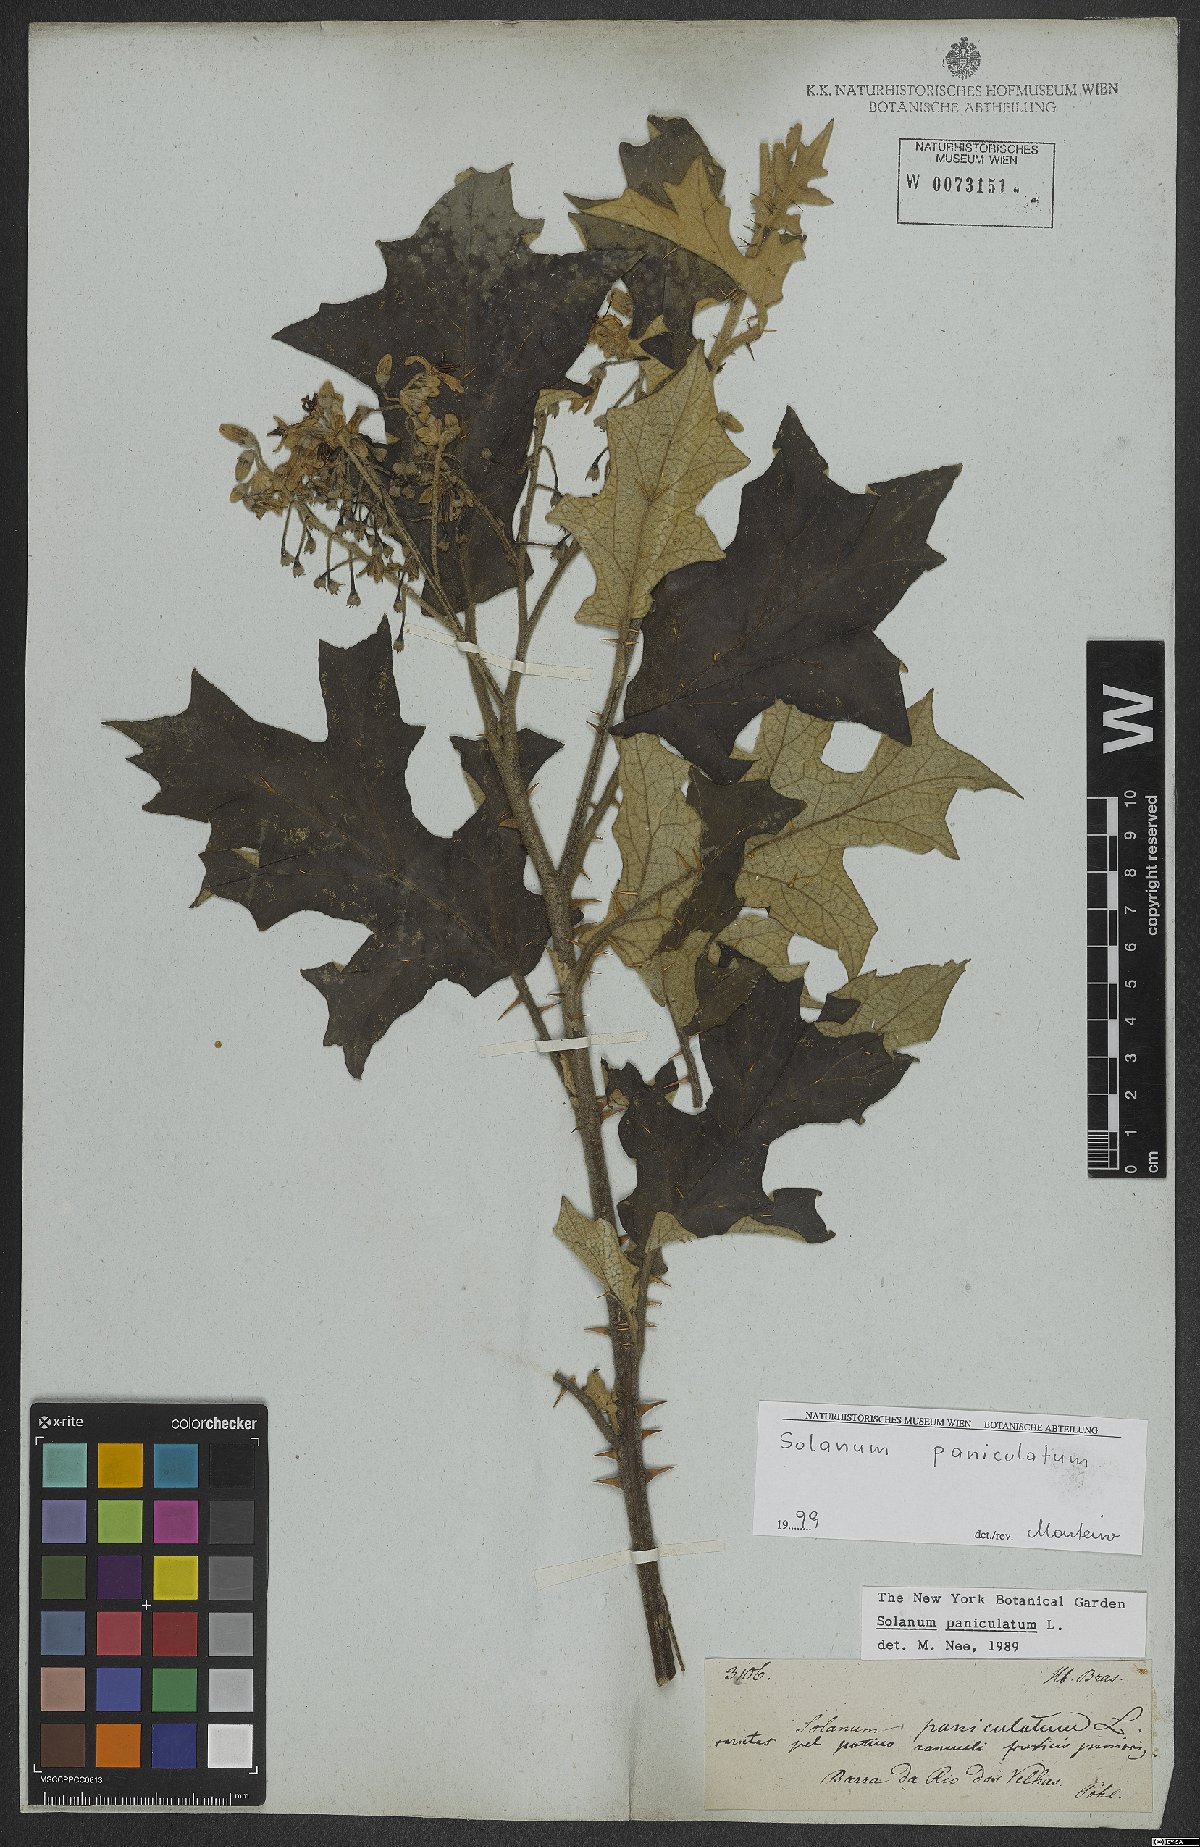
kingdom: Plantae
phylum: Tracheophyta
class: Magnoliopsida
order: Solanales
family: Solanaceae
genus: Solanum
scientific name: Solanum paniculatum
